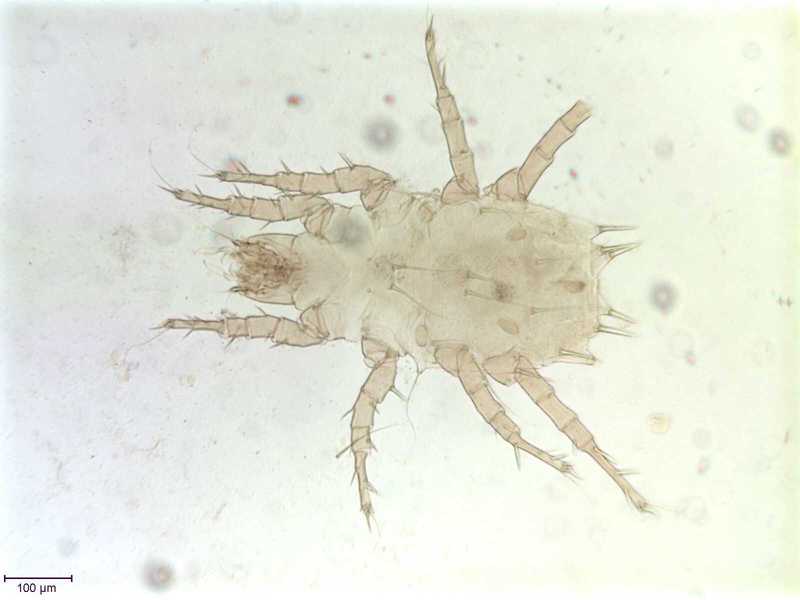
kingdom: Animalia
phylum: Arthropoda
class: Arachnida
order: Sarcoptiformes
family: Histiostomatidae
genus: Prowichmannia
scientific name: Prowichmannia
